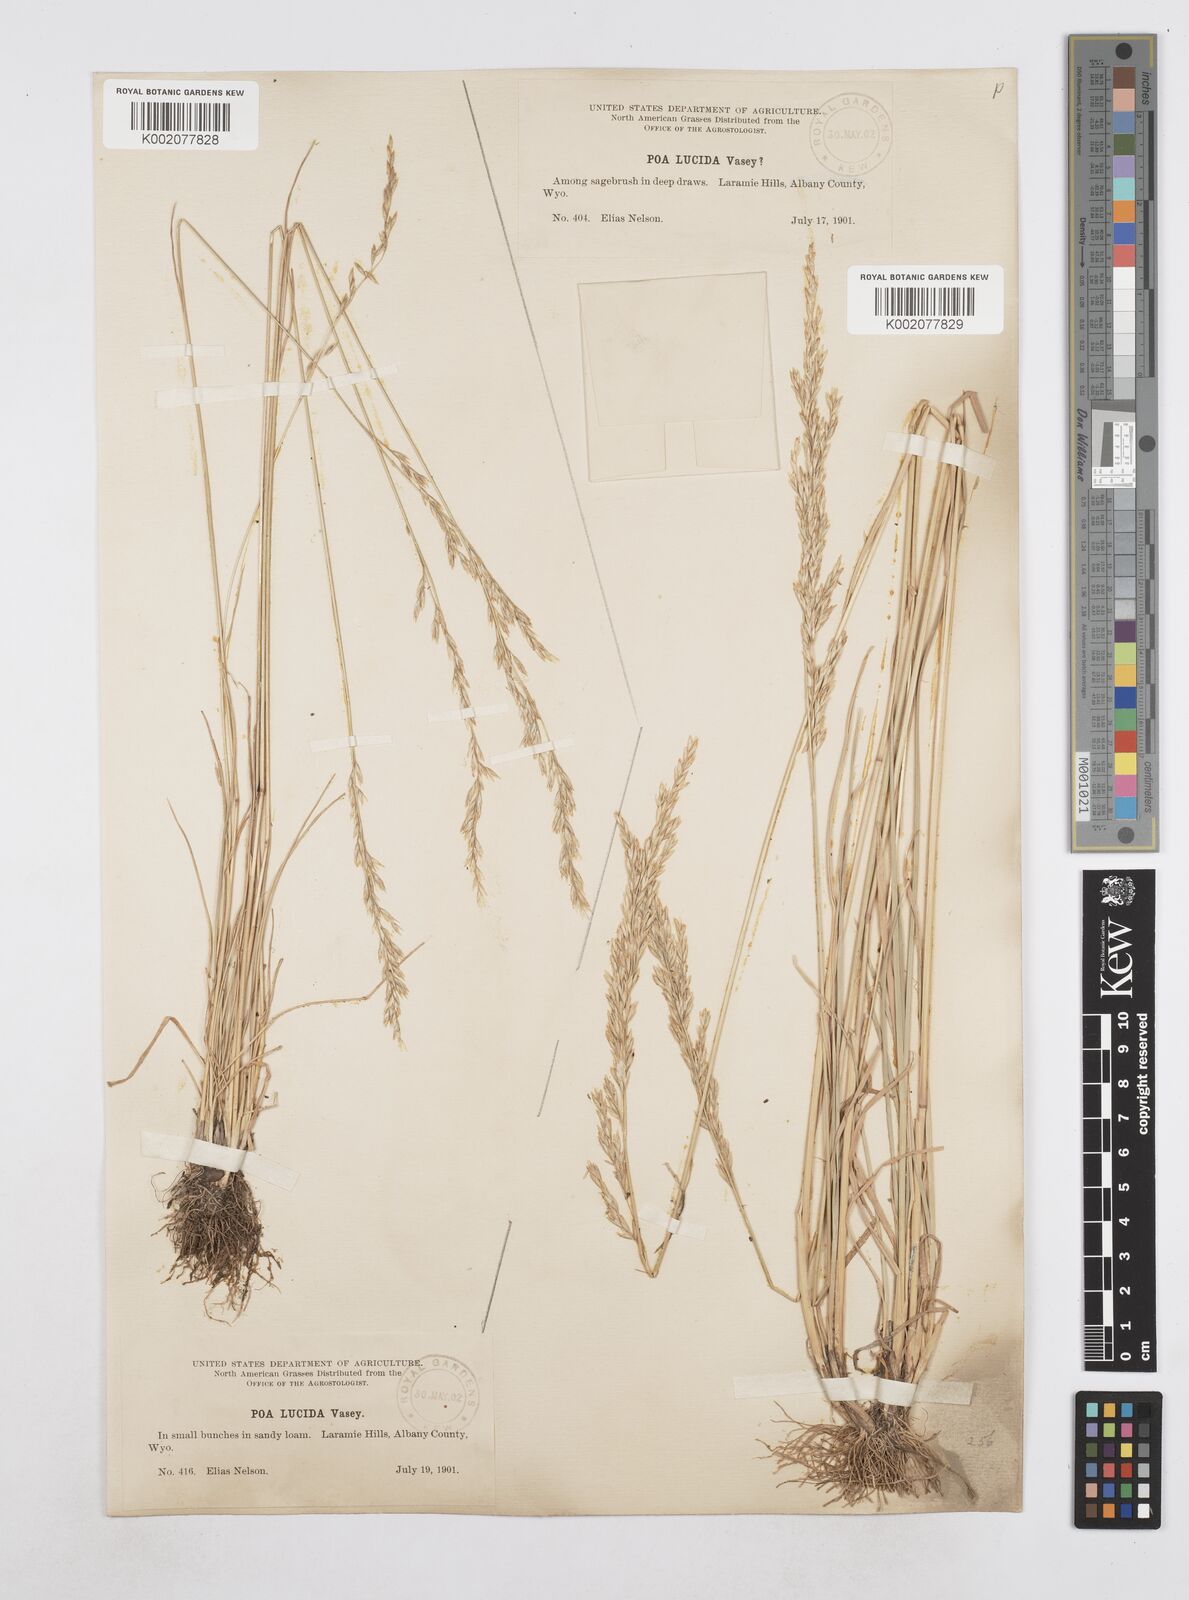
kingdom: Plantae
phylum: Tracheophyta
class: Liliopsida
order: Poales
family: Poaceae
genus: Poa
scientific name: Poa secunda
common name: Sandberg bluegrass
